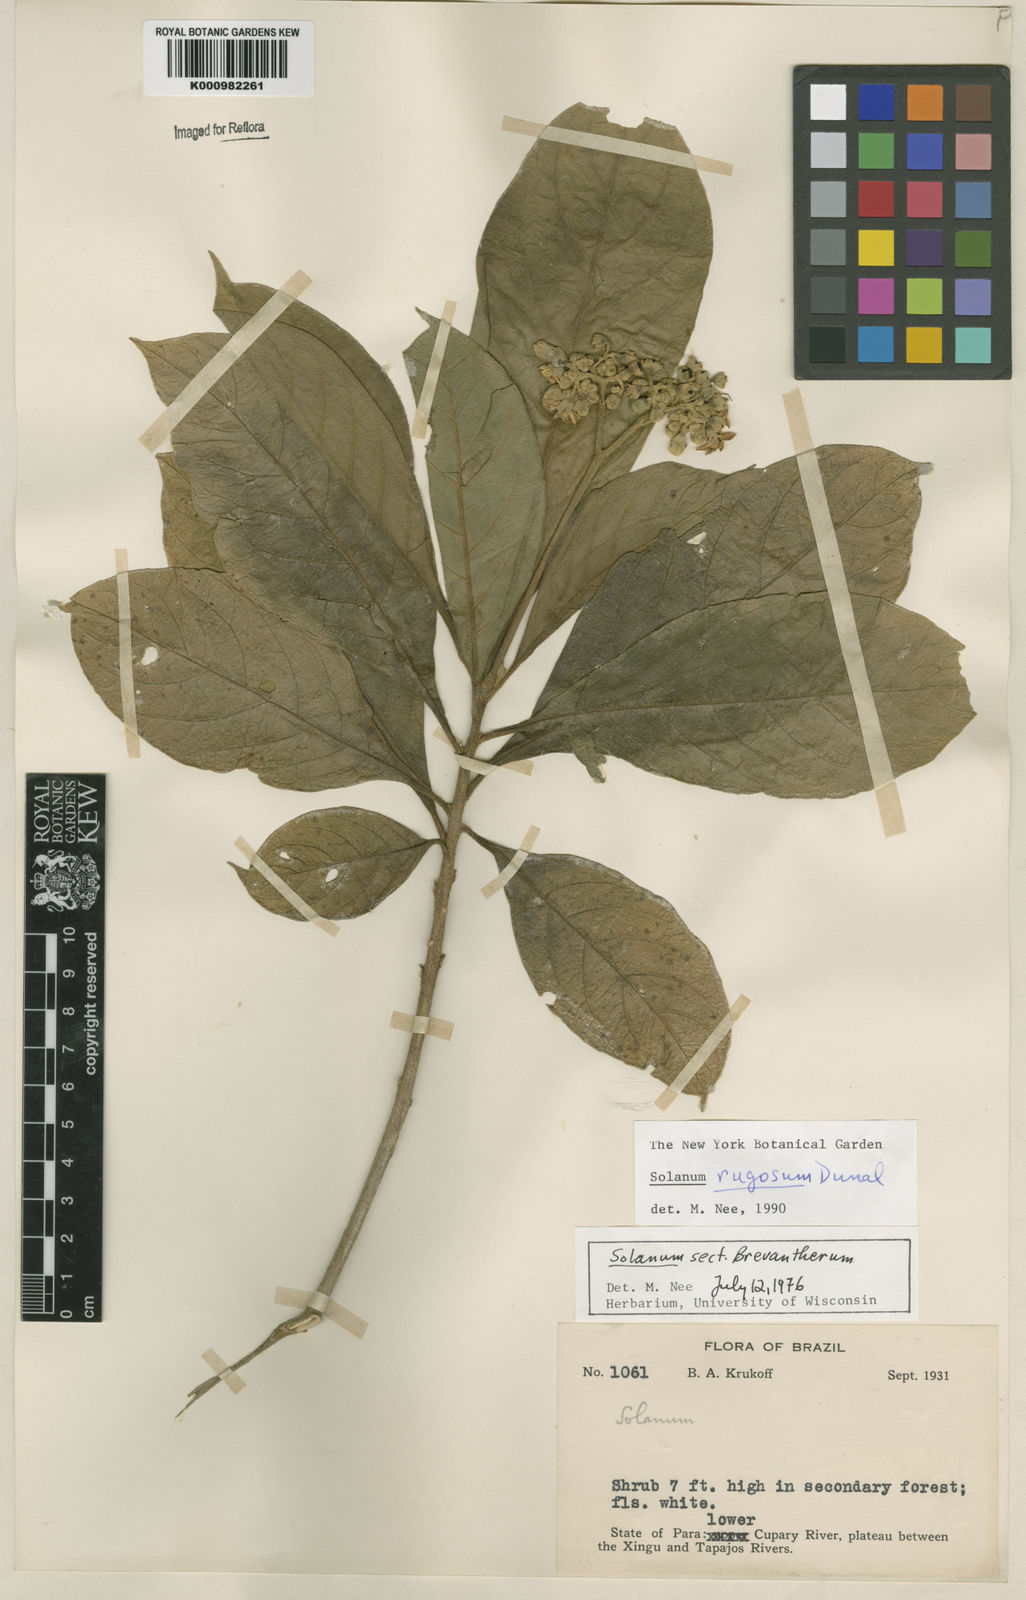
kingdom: Plantae
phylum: Tracheophyta
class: Magnoliopsida
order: Solanales
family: Solanaceae
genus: Solanum
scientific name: Solanum rugosum
